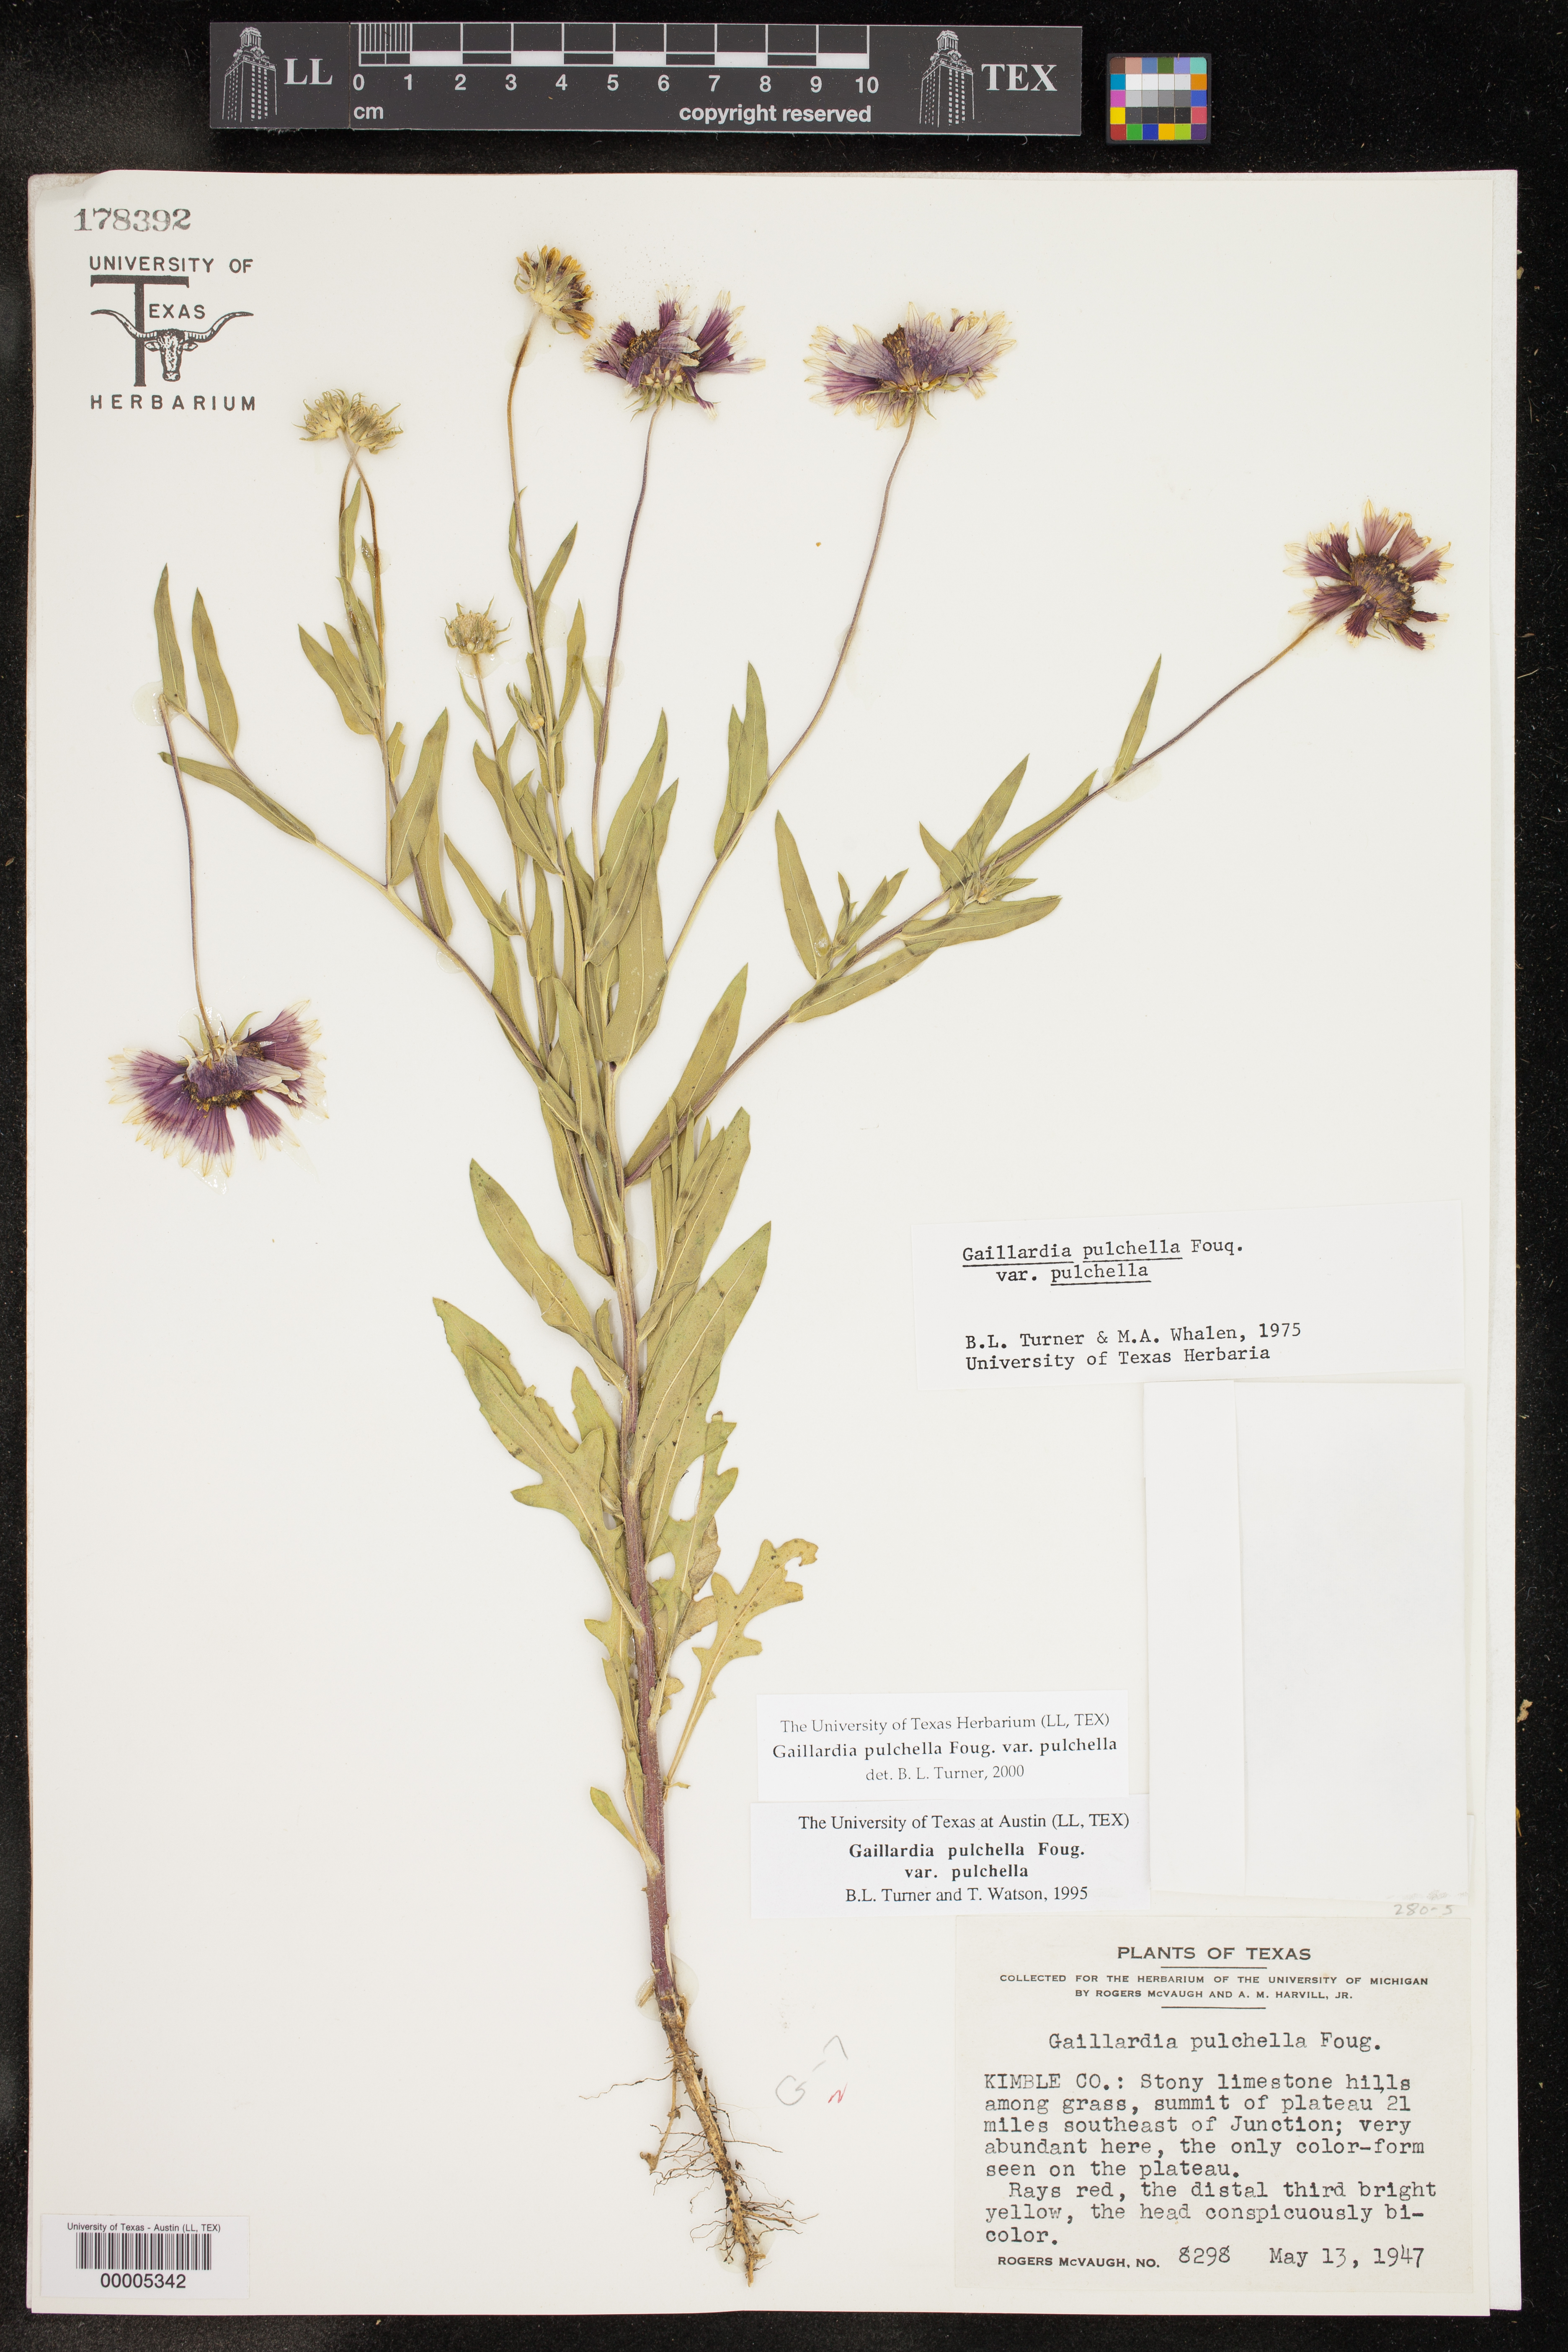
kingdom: Plantae
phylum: Tracheophyta
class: Magnoliopsida
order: Asterales
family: Asteraceae
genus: Gaillardia
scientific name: Gaillardia pulchella
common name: Firewheel
